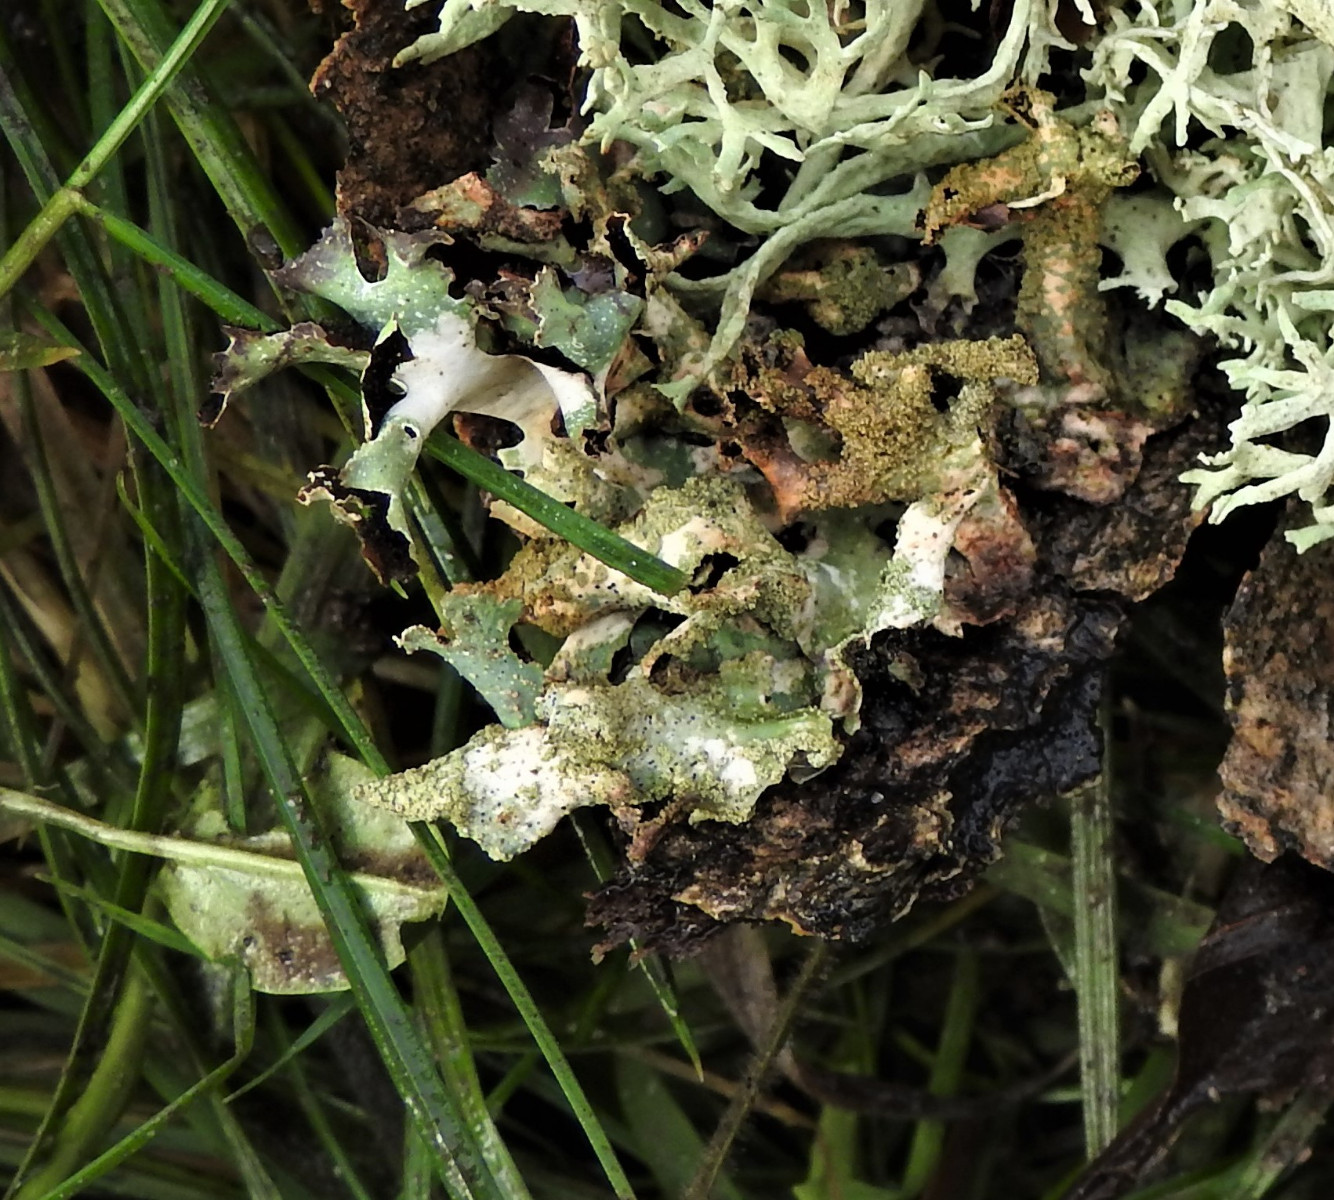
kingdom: Fungi
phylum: Ascomycota
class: Lecanoromycetes
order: Lecanorales
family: Parmeliaceae
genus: Evernia
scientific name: Evernia prunastri
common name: almindelig slåenlav
